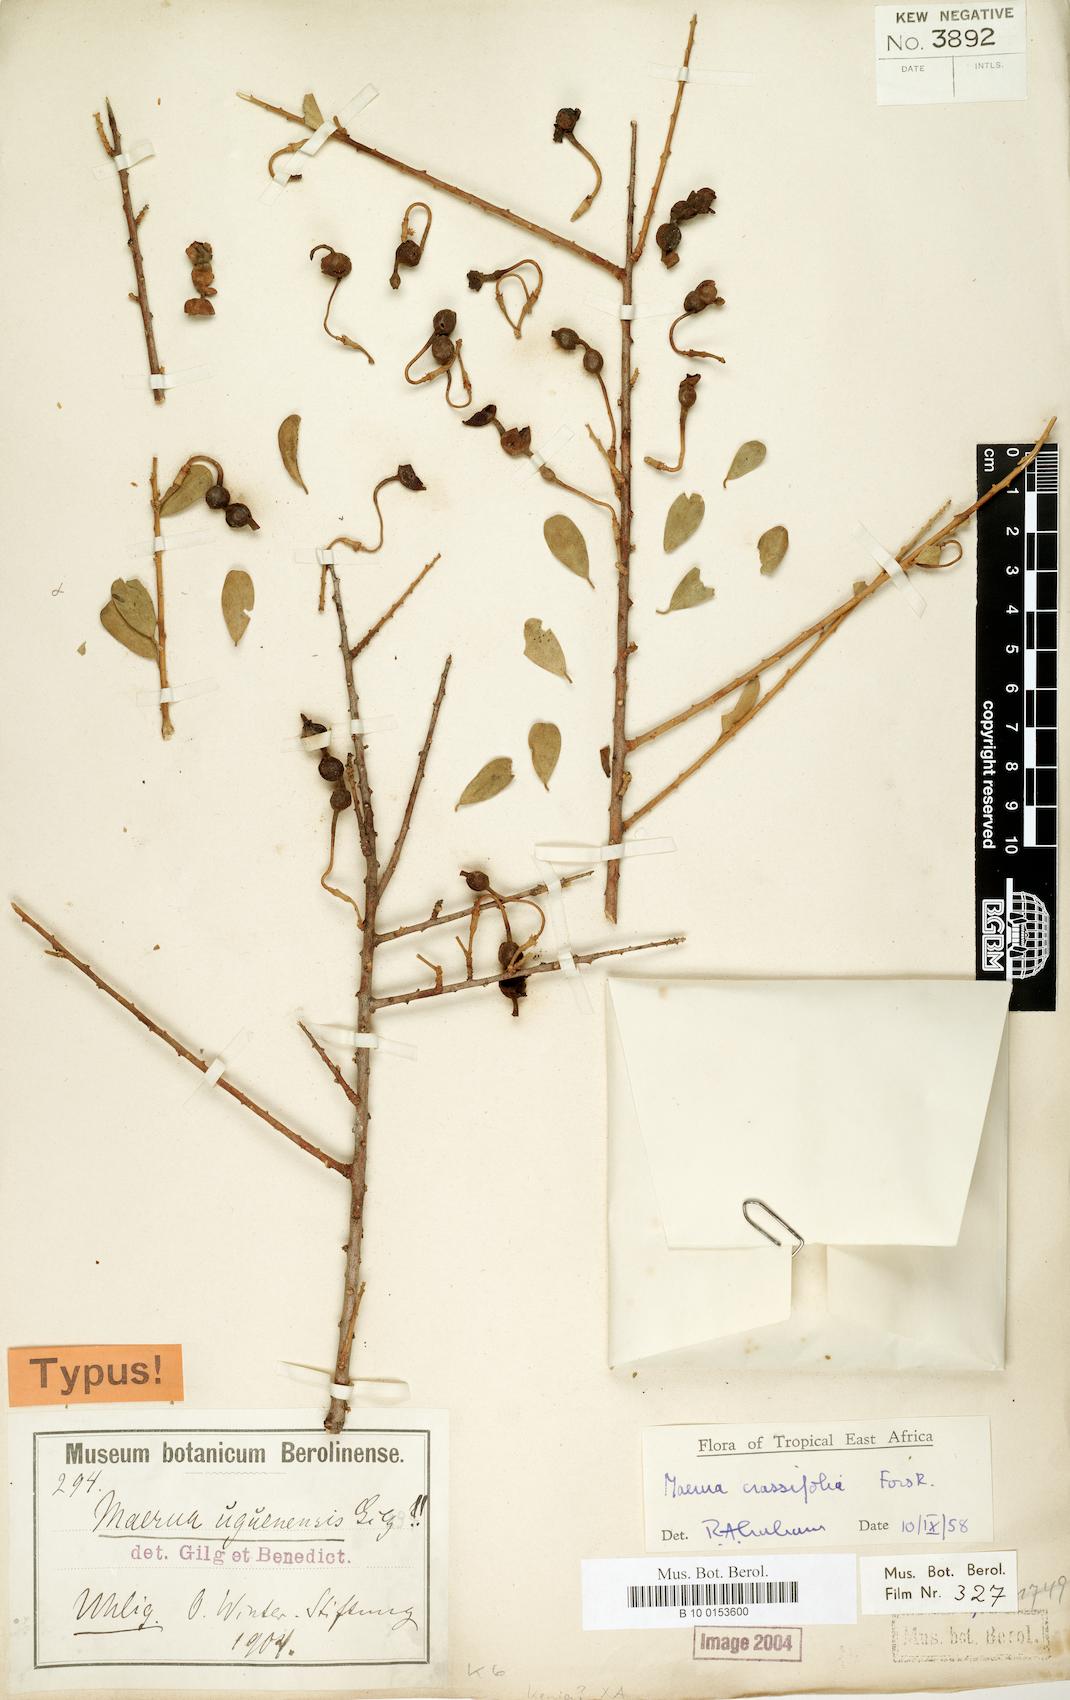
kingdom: Plantae
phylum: Tracheophyta
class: Magnoliopsida
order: Brassicales
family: Capparaceae
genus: Maerua
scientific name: Maerua crassifolia
